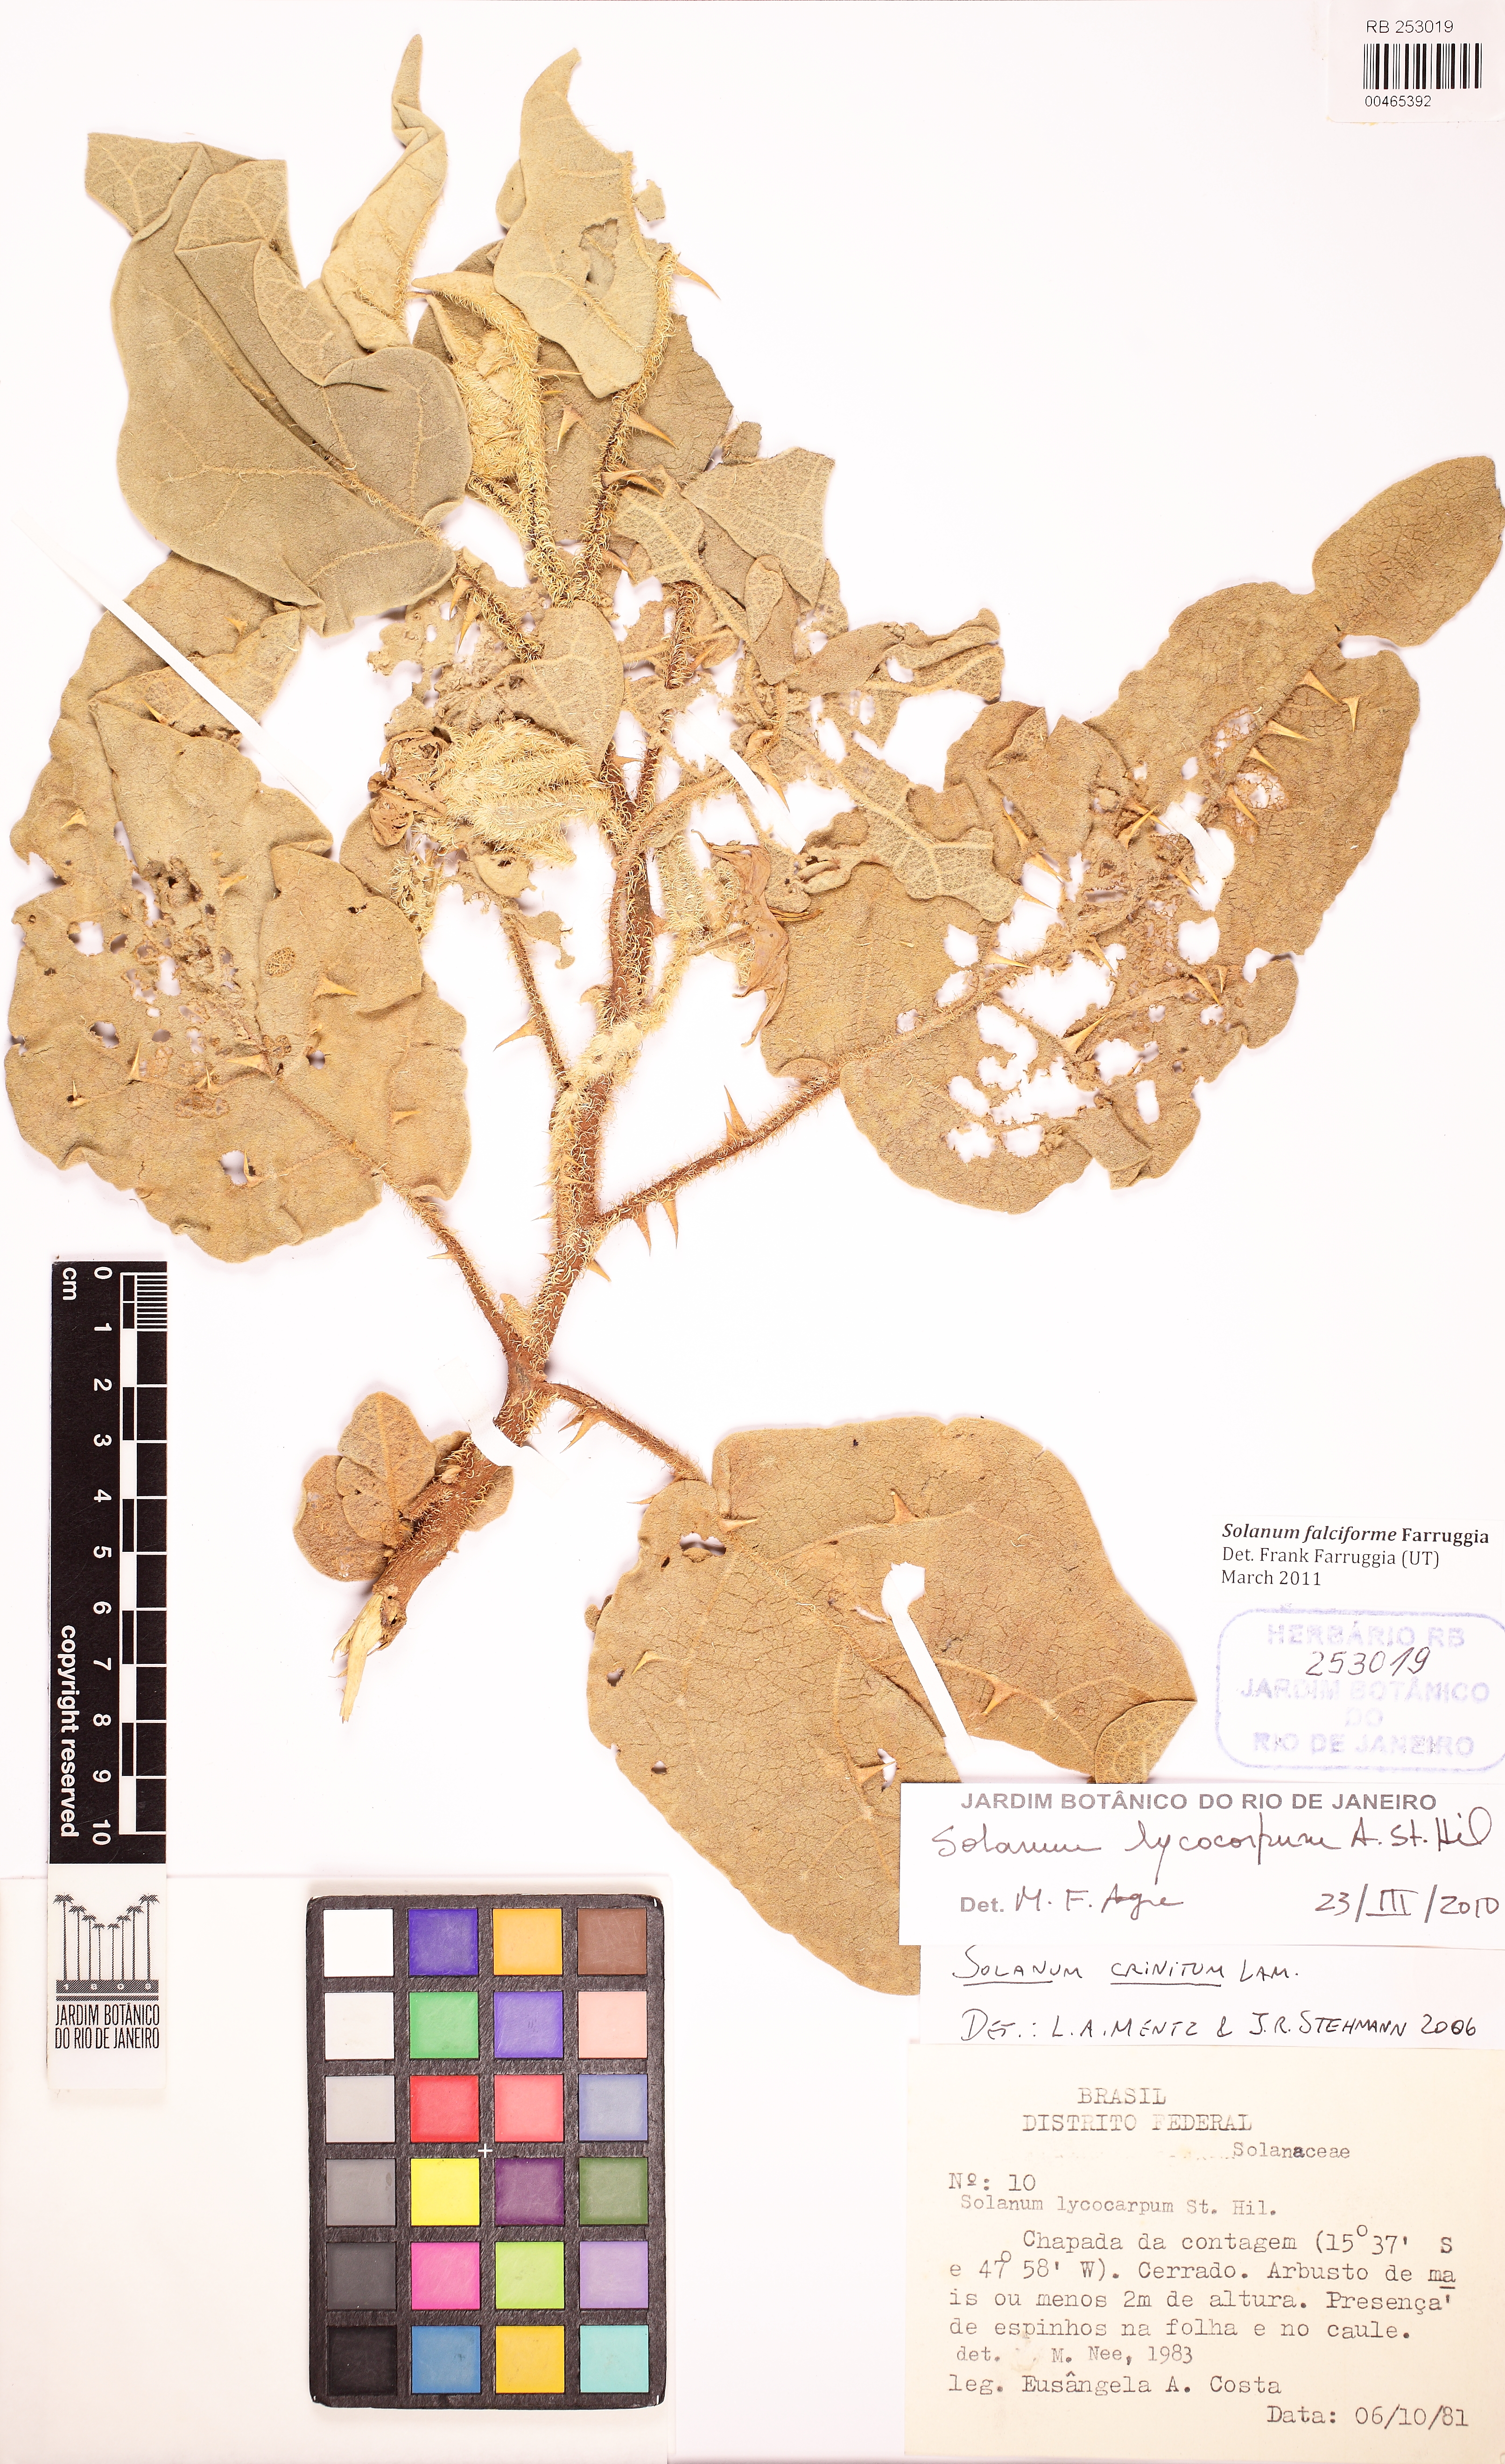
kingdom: Plantae
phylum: Tracheophyta
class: Magnoliopsida
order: Solanales
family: Solanaceae
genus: Solanum
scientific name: Solanum falciforme
